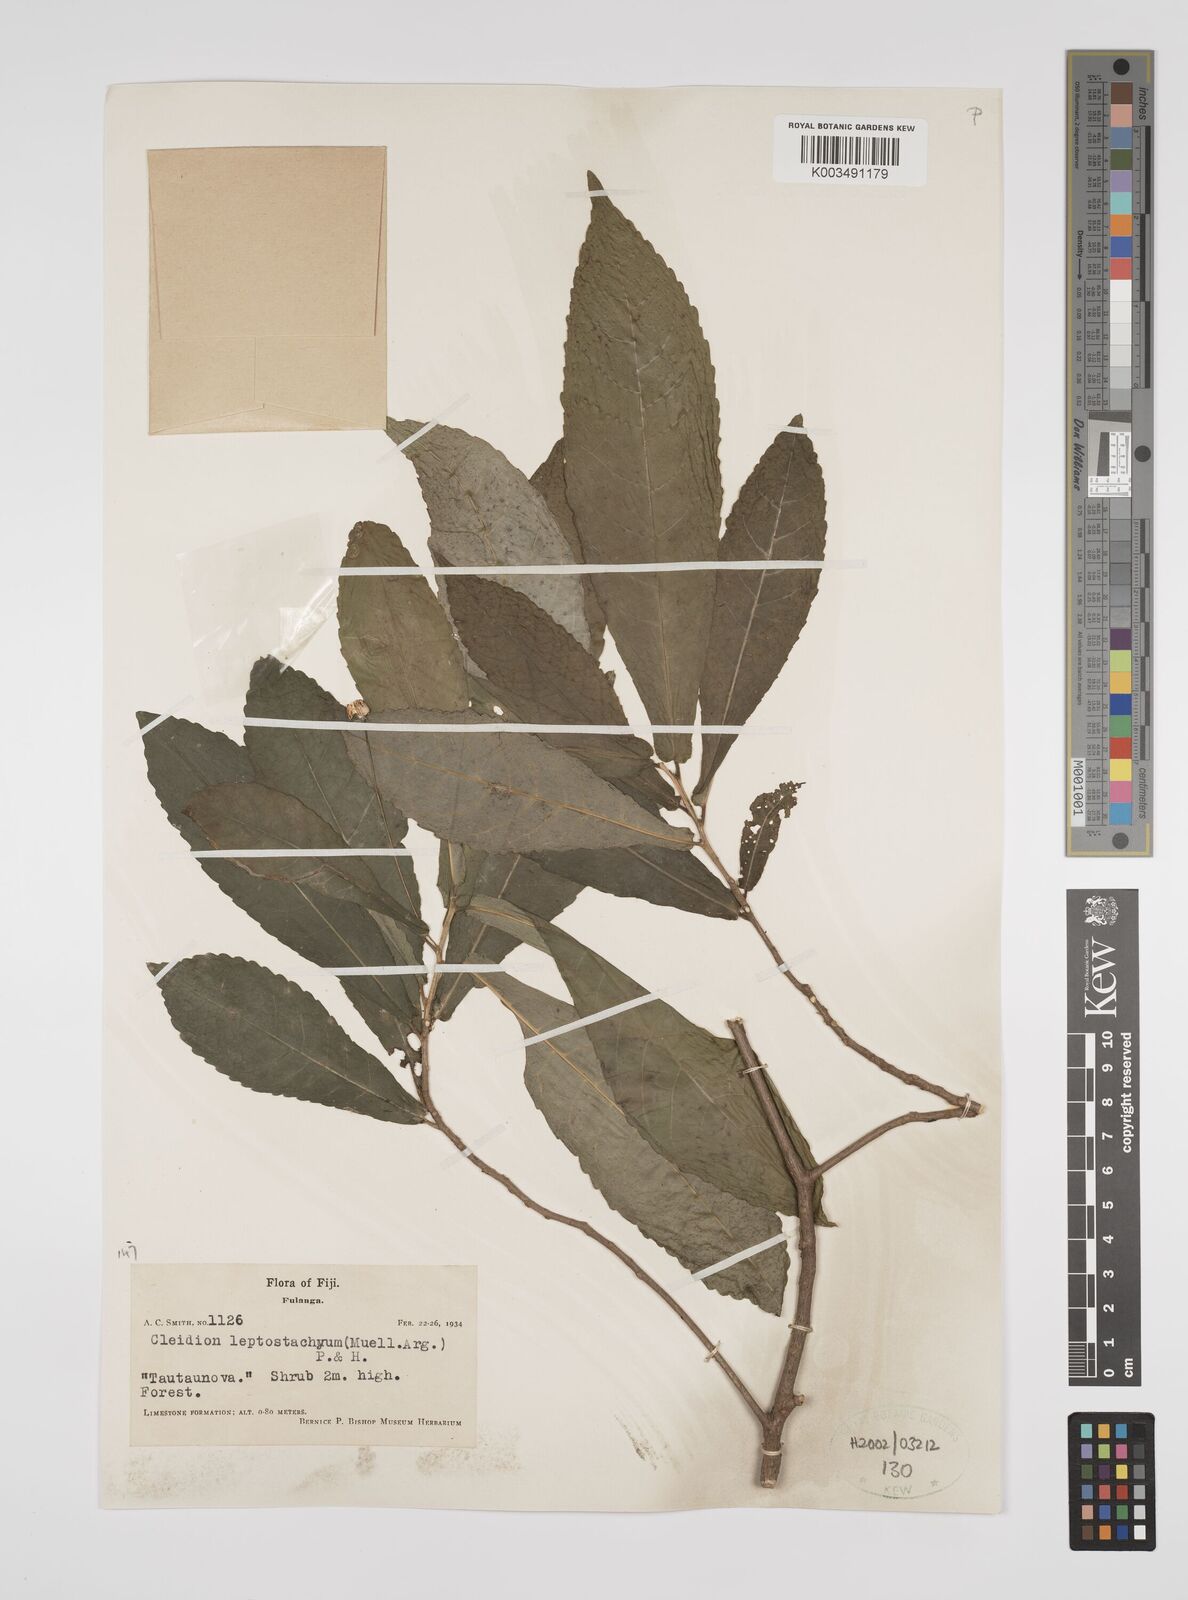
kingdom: Plantae
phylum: Tracheophyta
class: Magnoliopsida
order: Malpighiales
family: Euphorbiaceae
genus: Cleidion
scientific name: Cleidion leptostachyum
